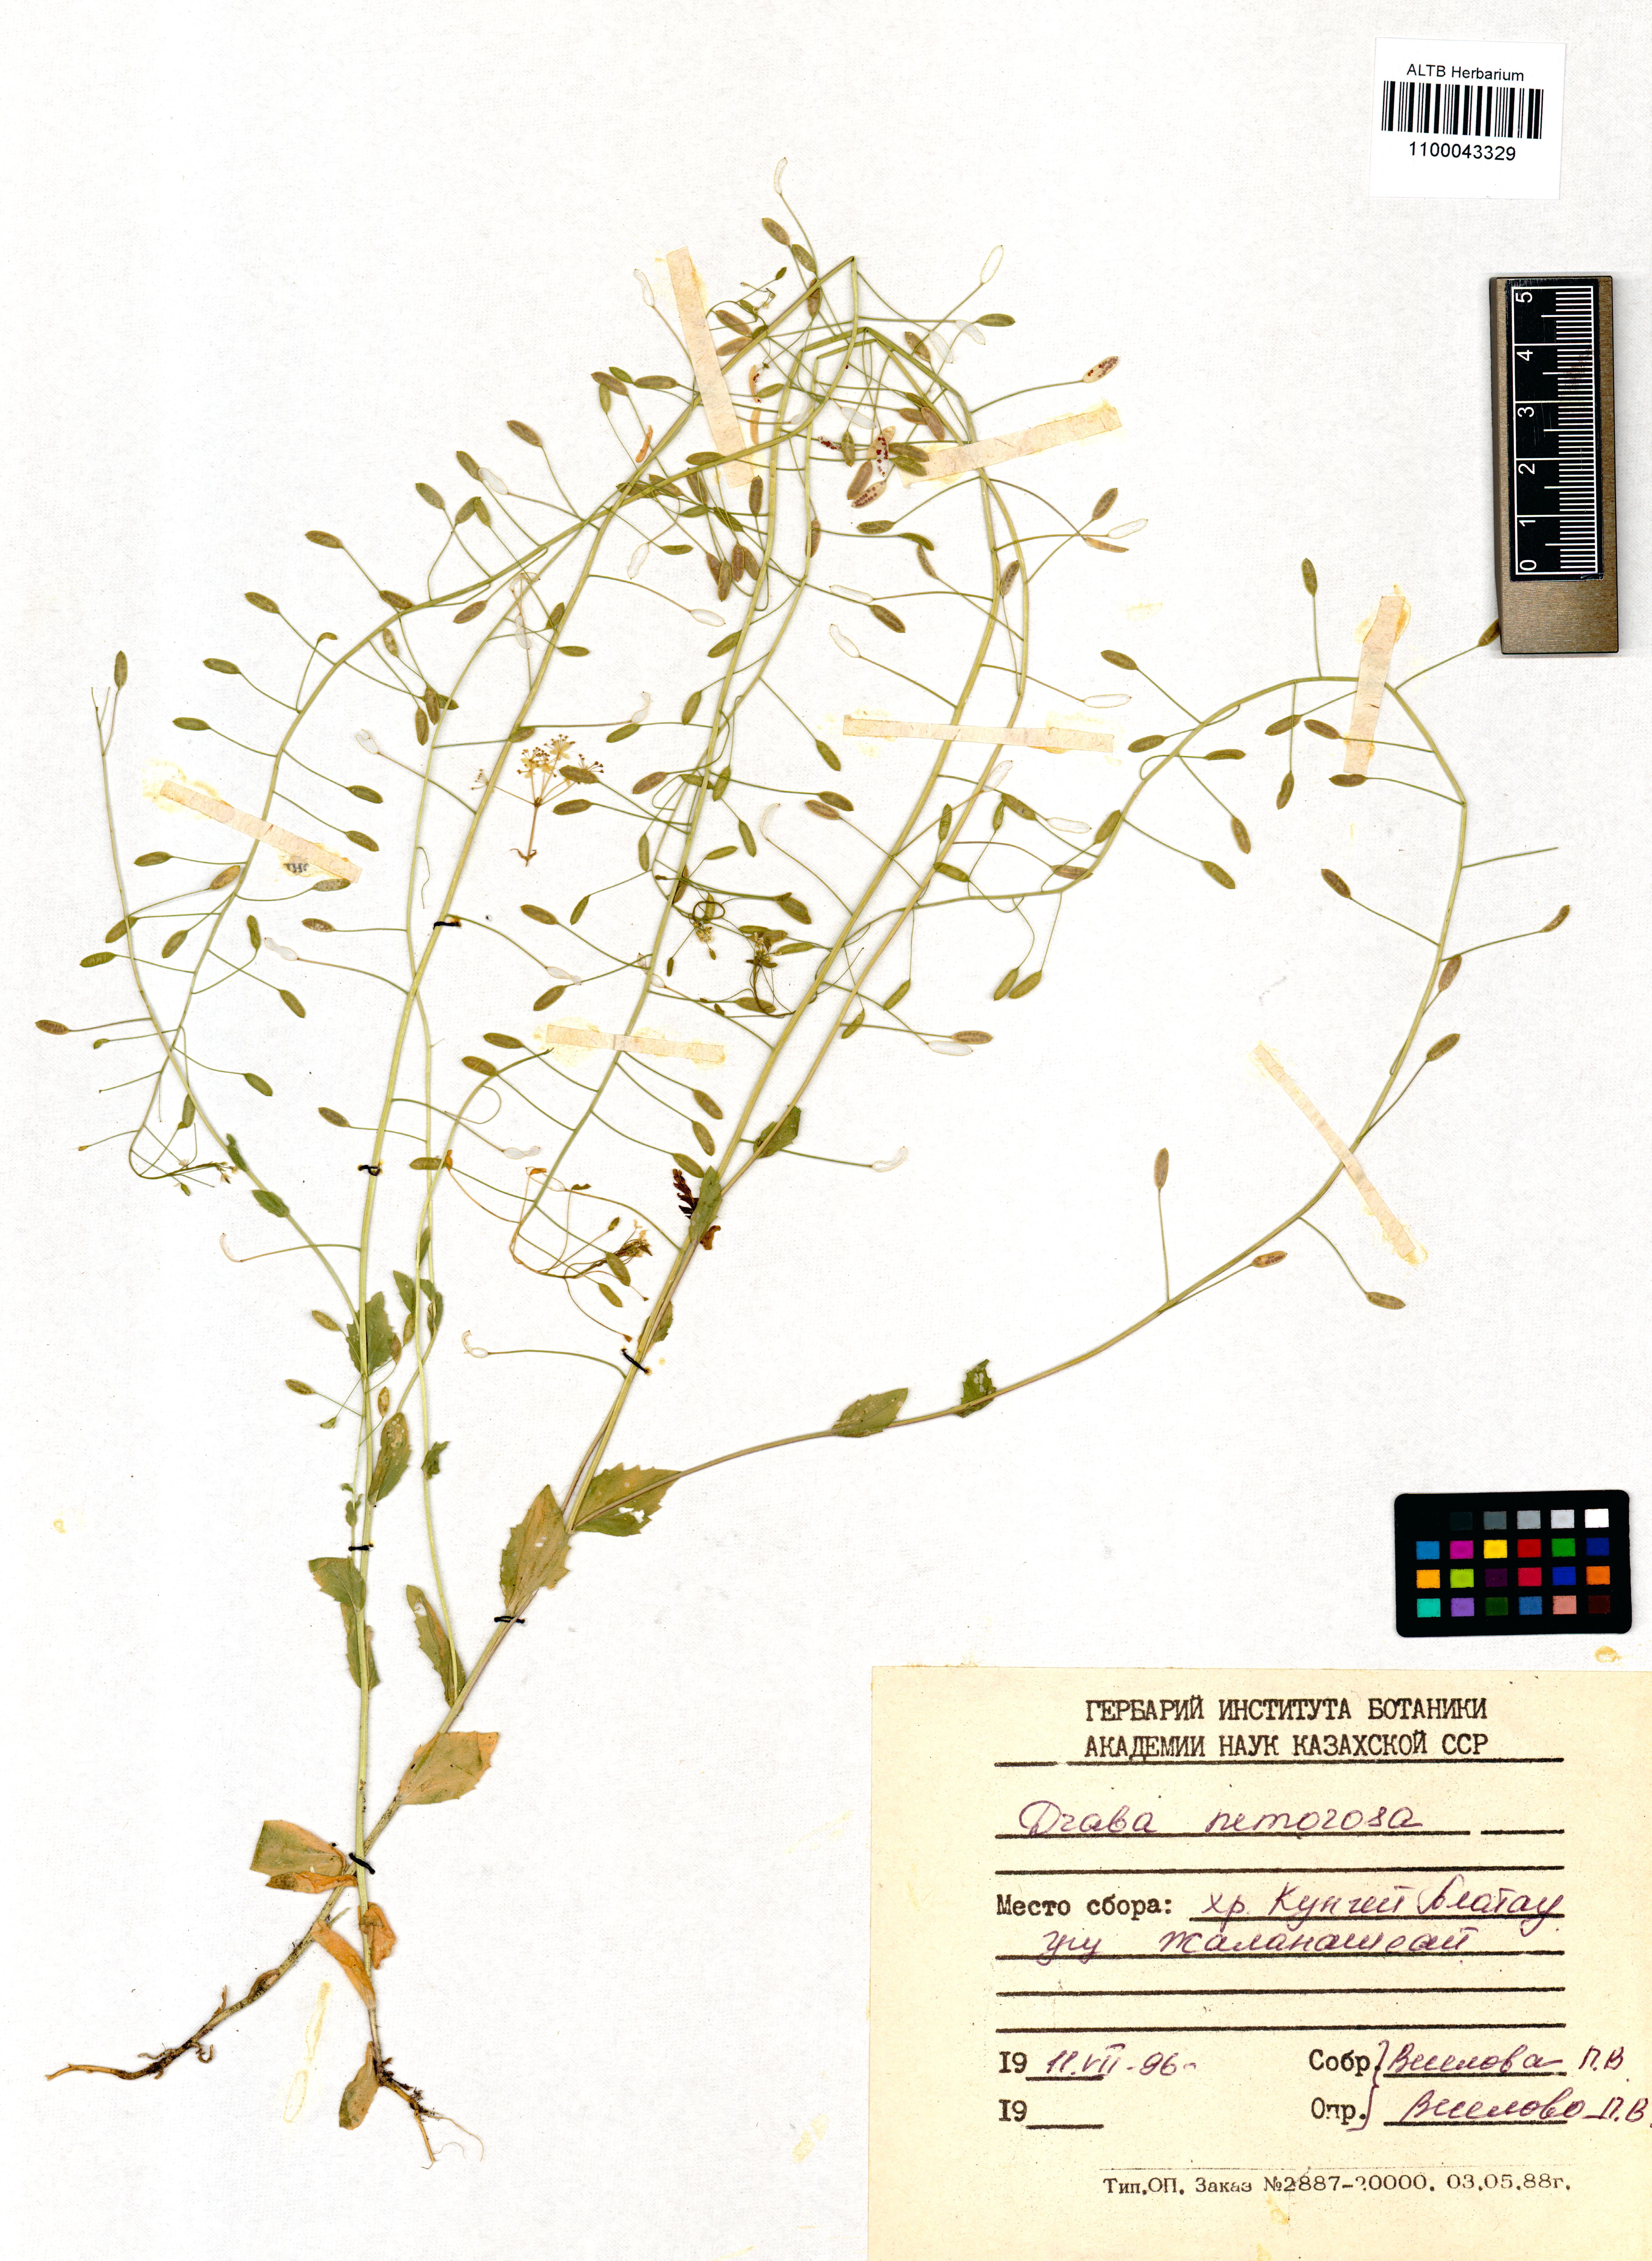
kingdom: Plantae
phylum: Tracheophyta
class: Magnoliopsida
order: Brassicales
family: Brassicaceae
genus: Draba
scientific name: Draba nemorosa
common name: Wood whitlow-grass
